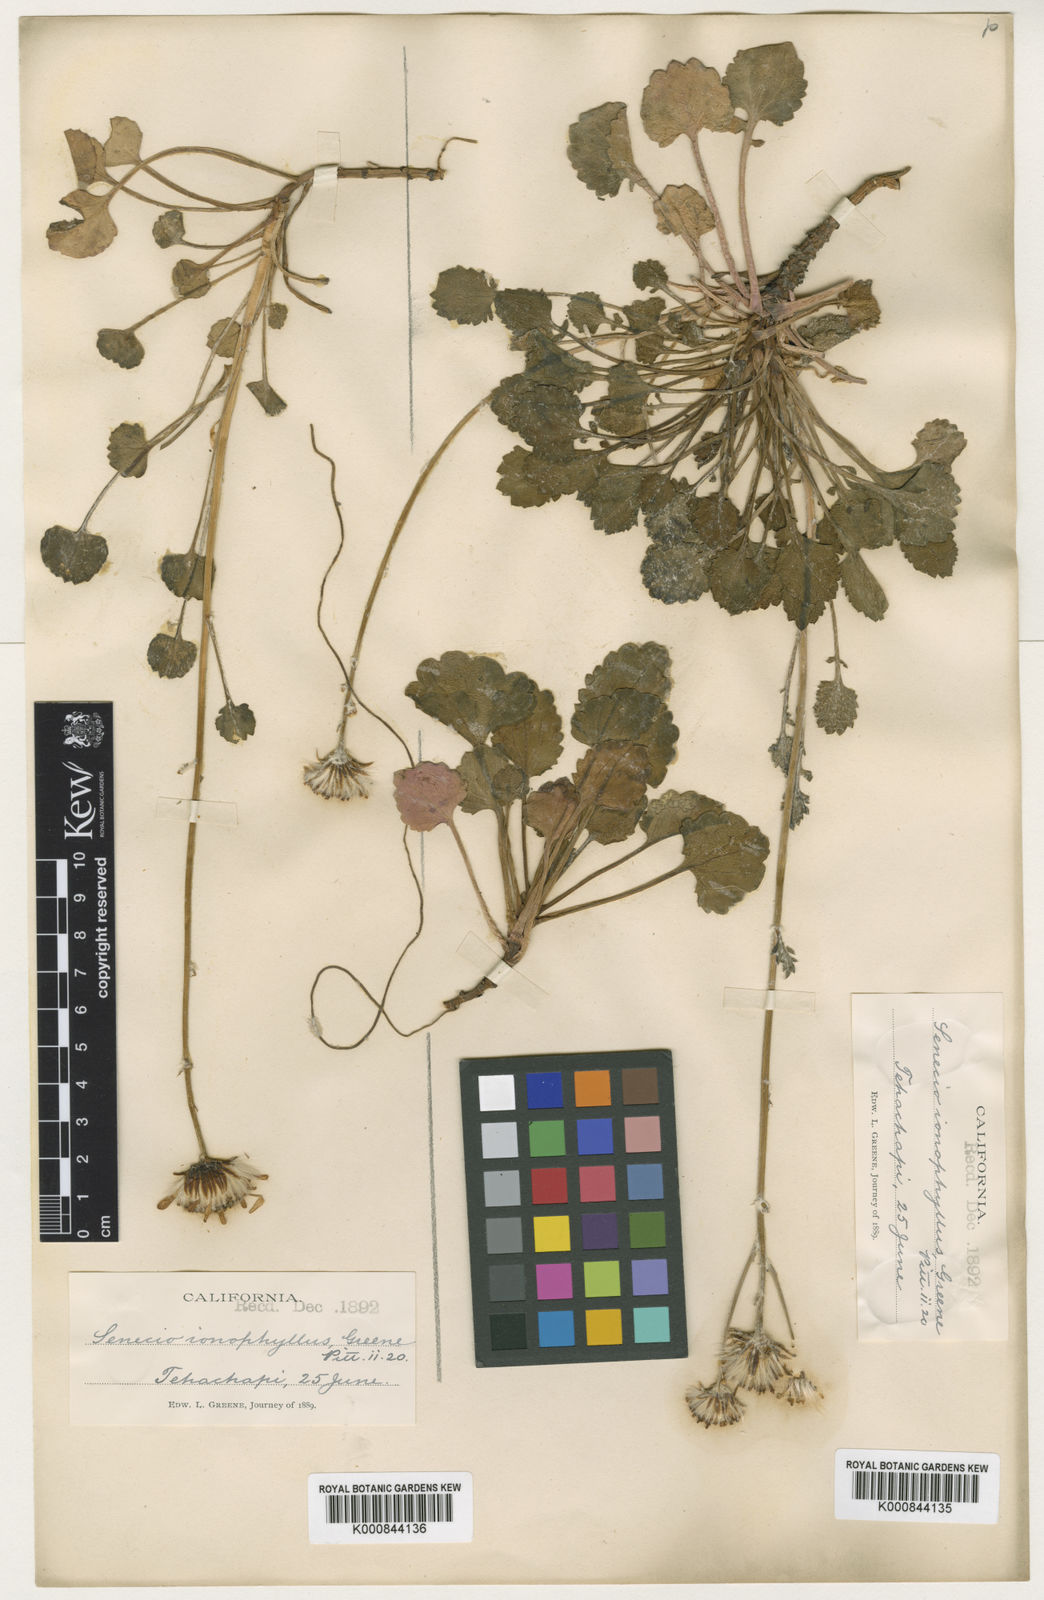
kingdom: Plantae
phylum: Tracheophyta
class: Magnoliopsida
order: Asterales
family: Asteraceae
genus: Packera
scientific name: Packera
